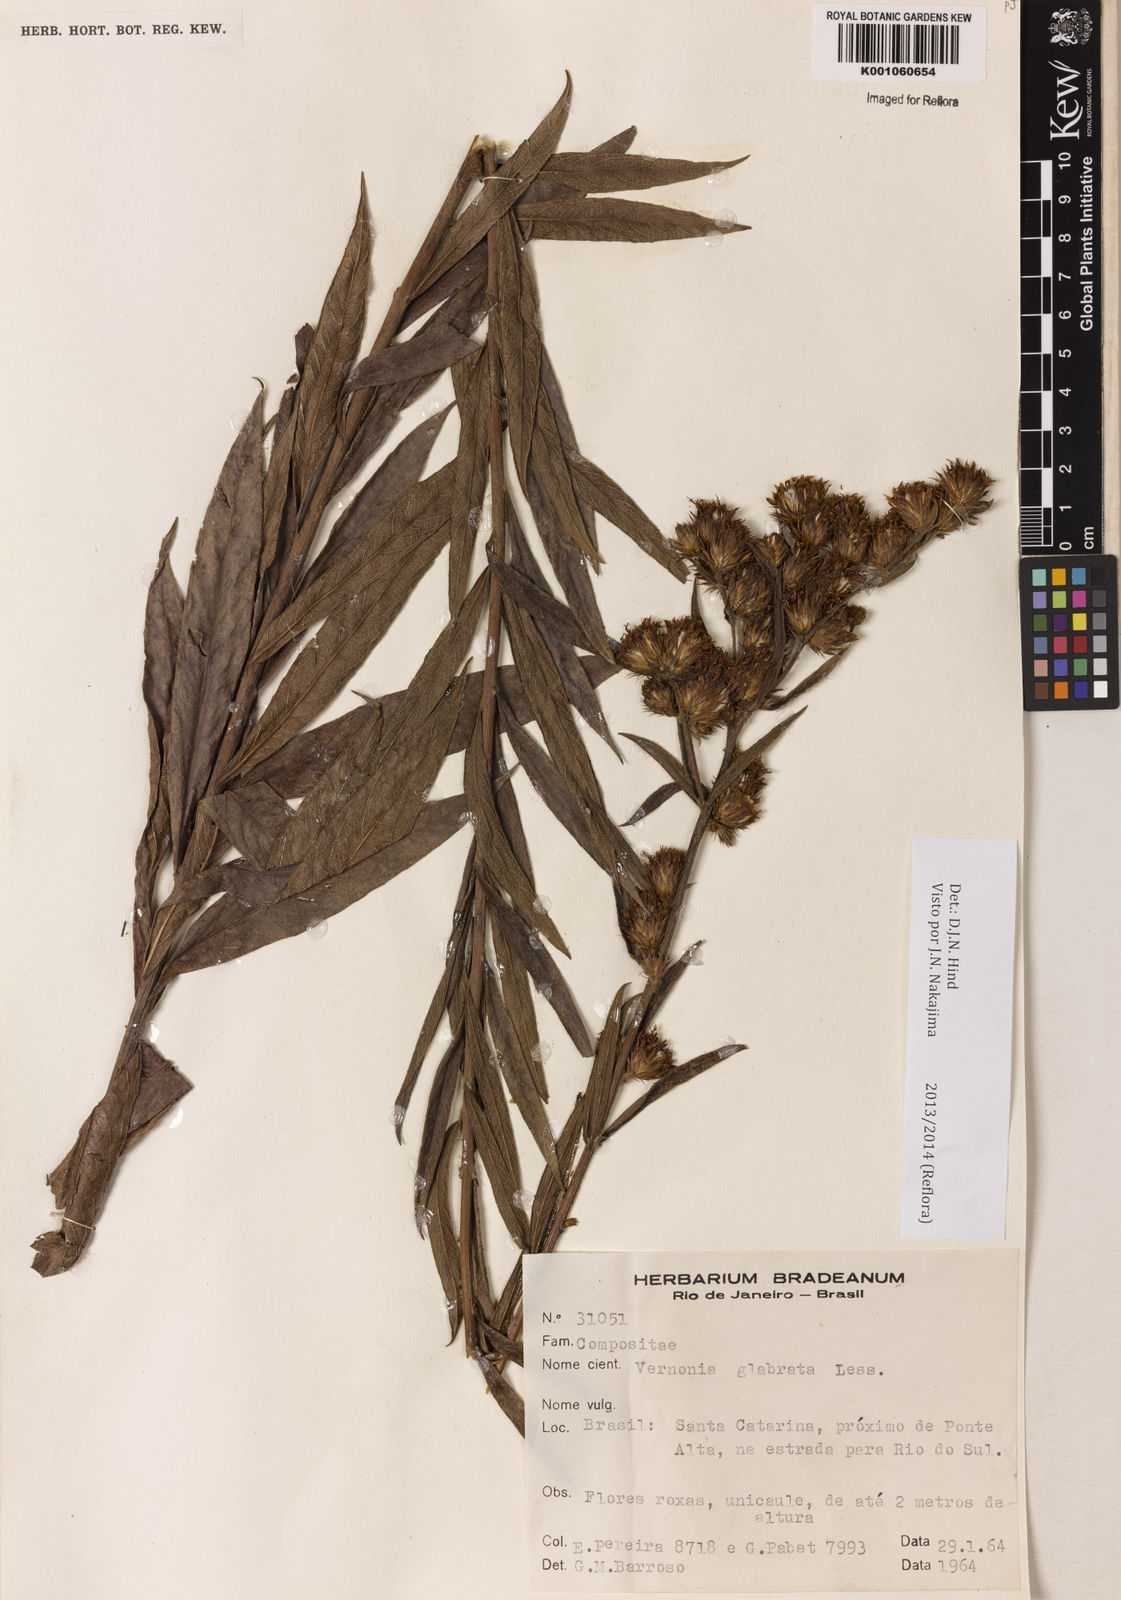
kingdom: Plantae
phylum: Tracheophyta
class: Magnoliopsida
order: Asterales
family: Asteraceae
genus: Lessingianthus
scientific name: Lessingianthus glabratus
